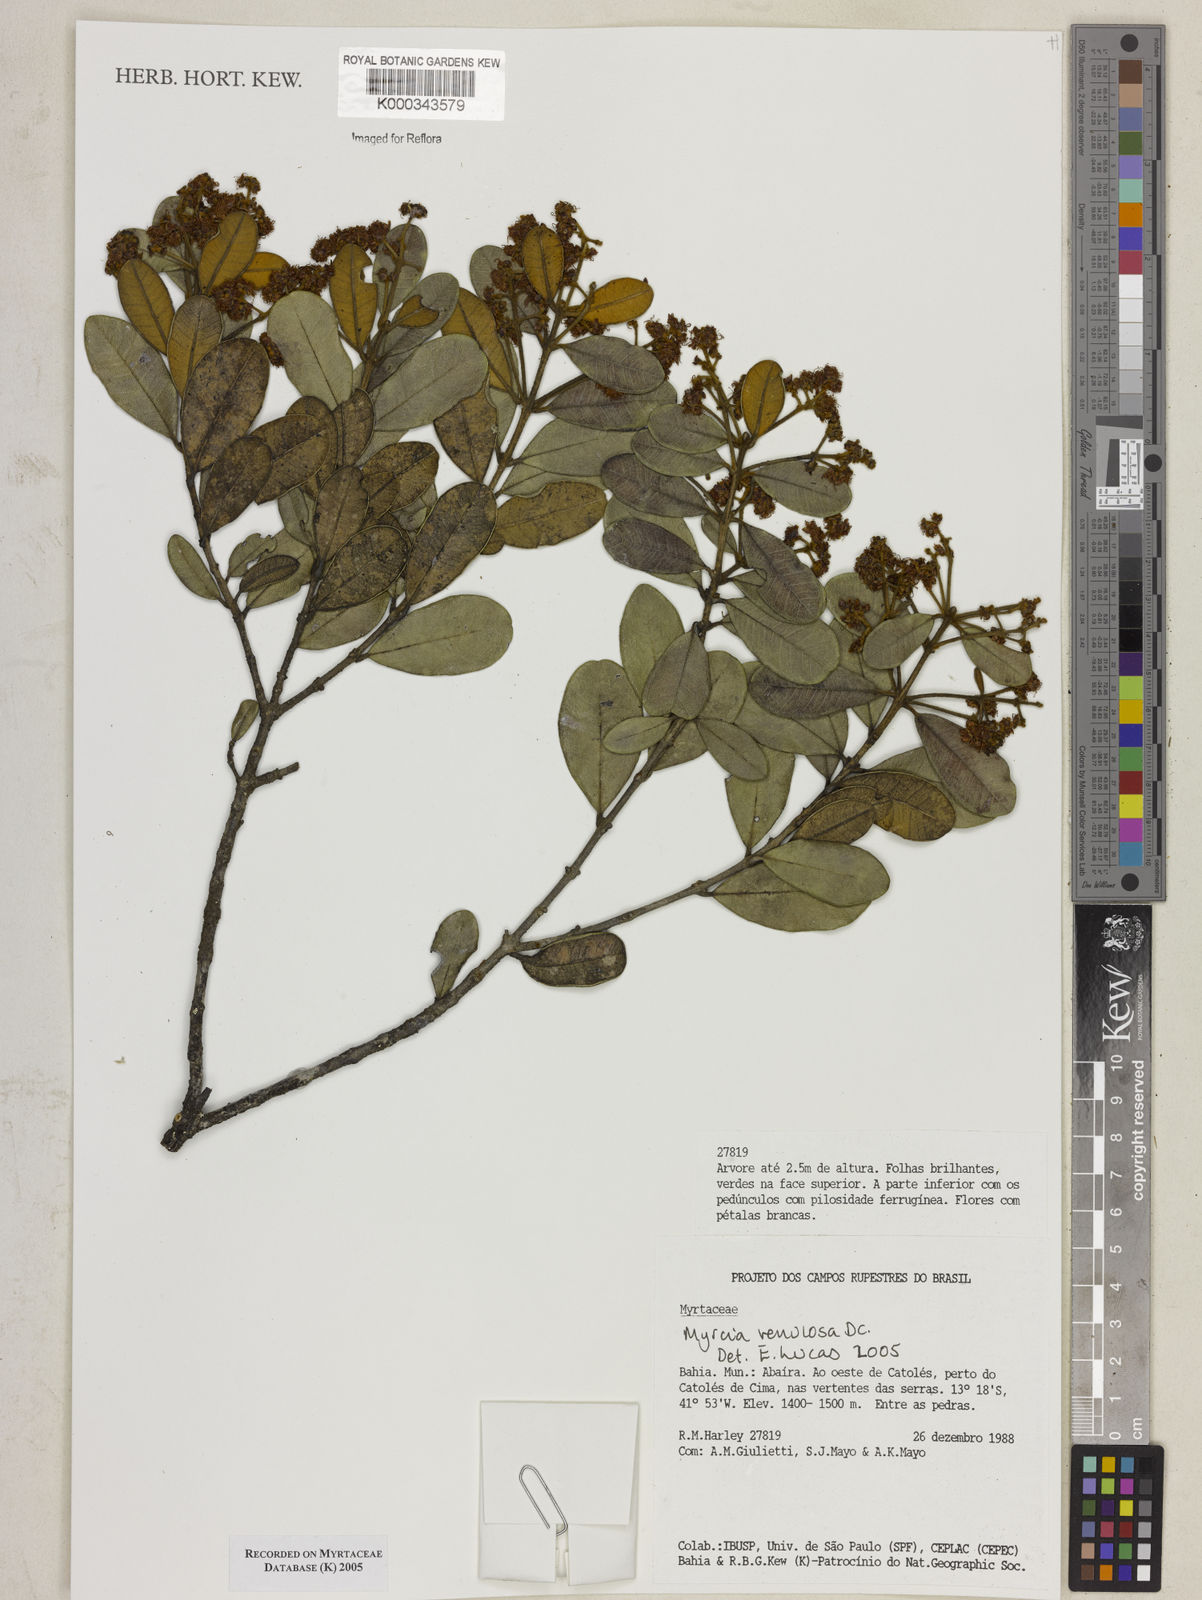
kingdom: Plantae
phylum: Tracheophyta
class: Magnoliopsida
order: Myrtales
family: Myrtaceae
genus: Myrcia
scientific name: Myrcia venulosa
